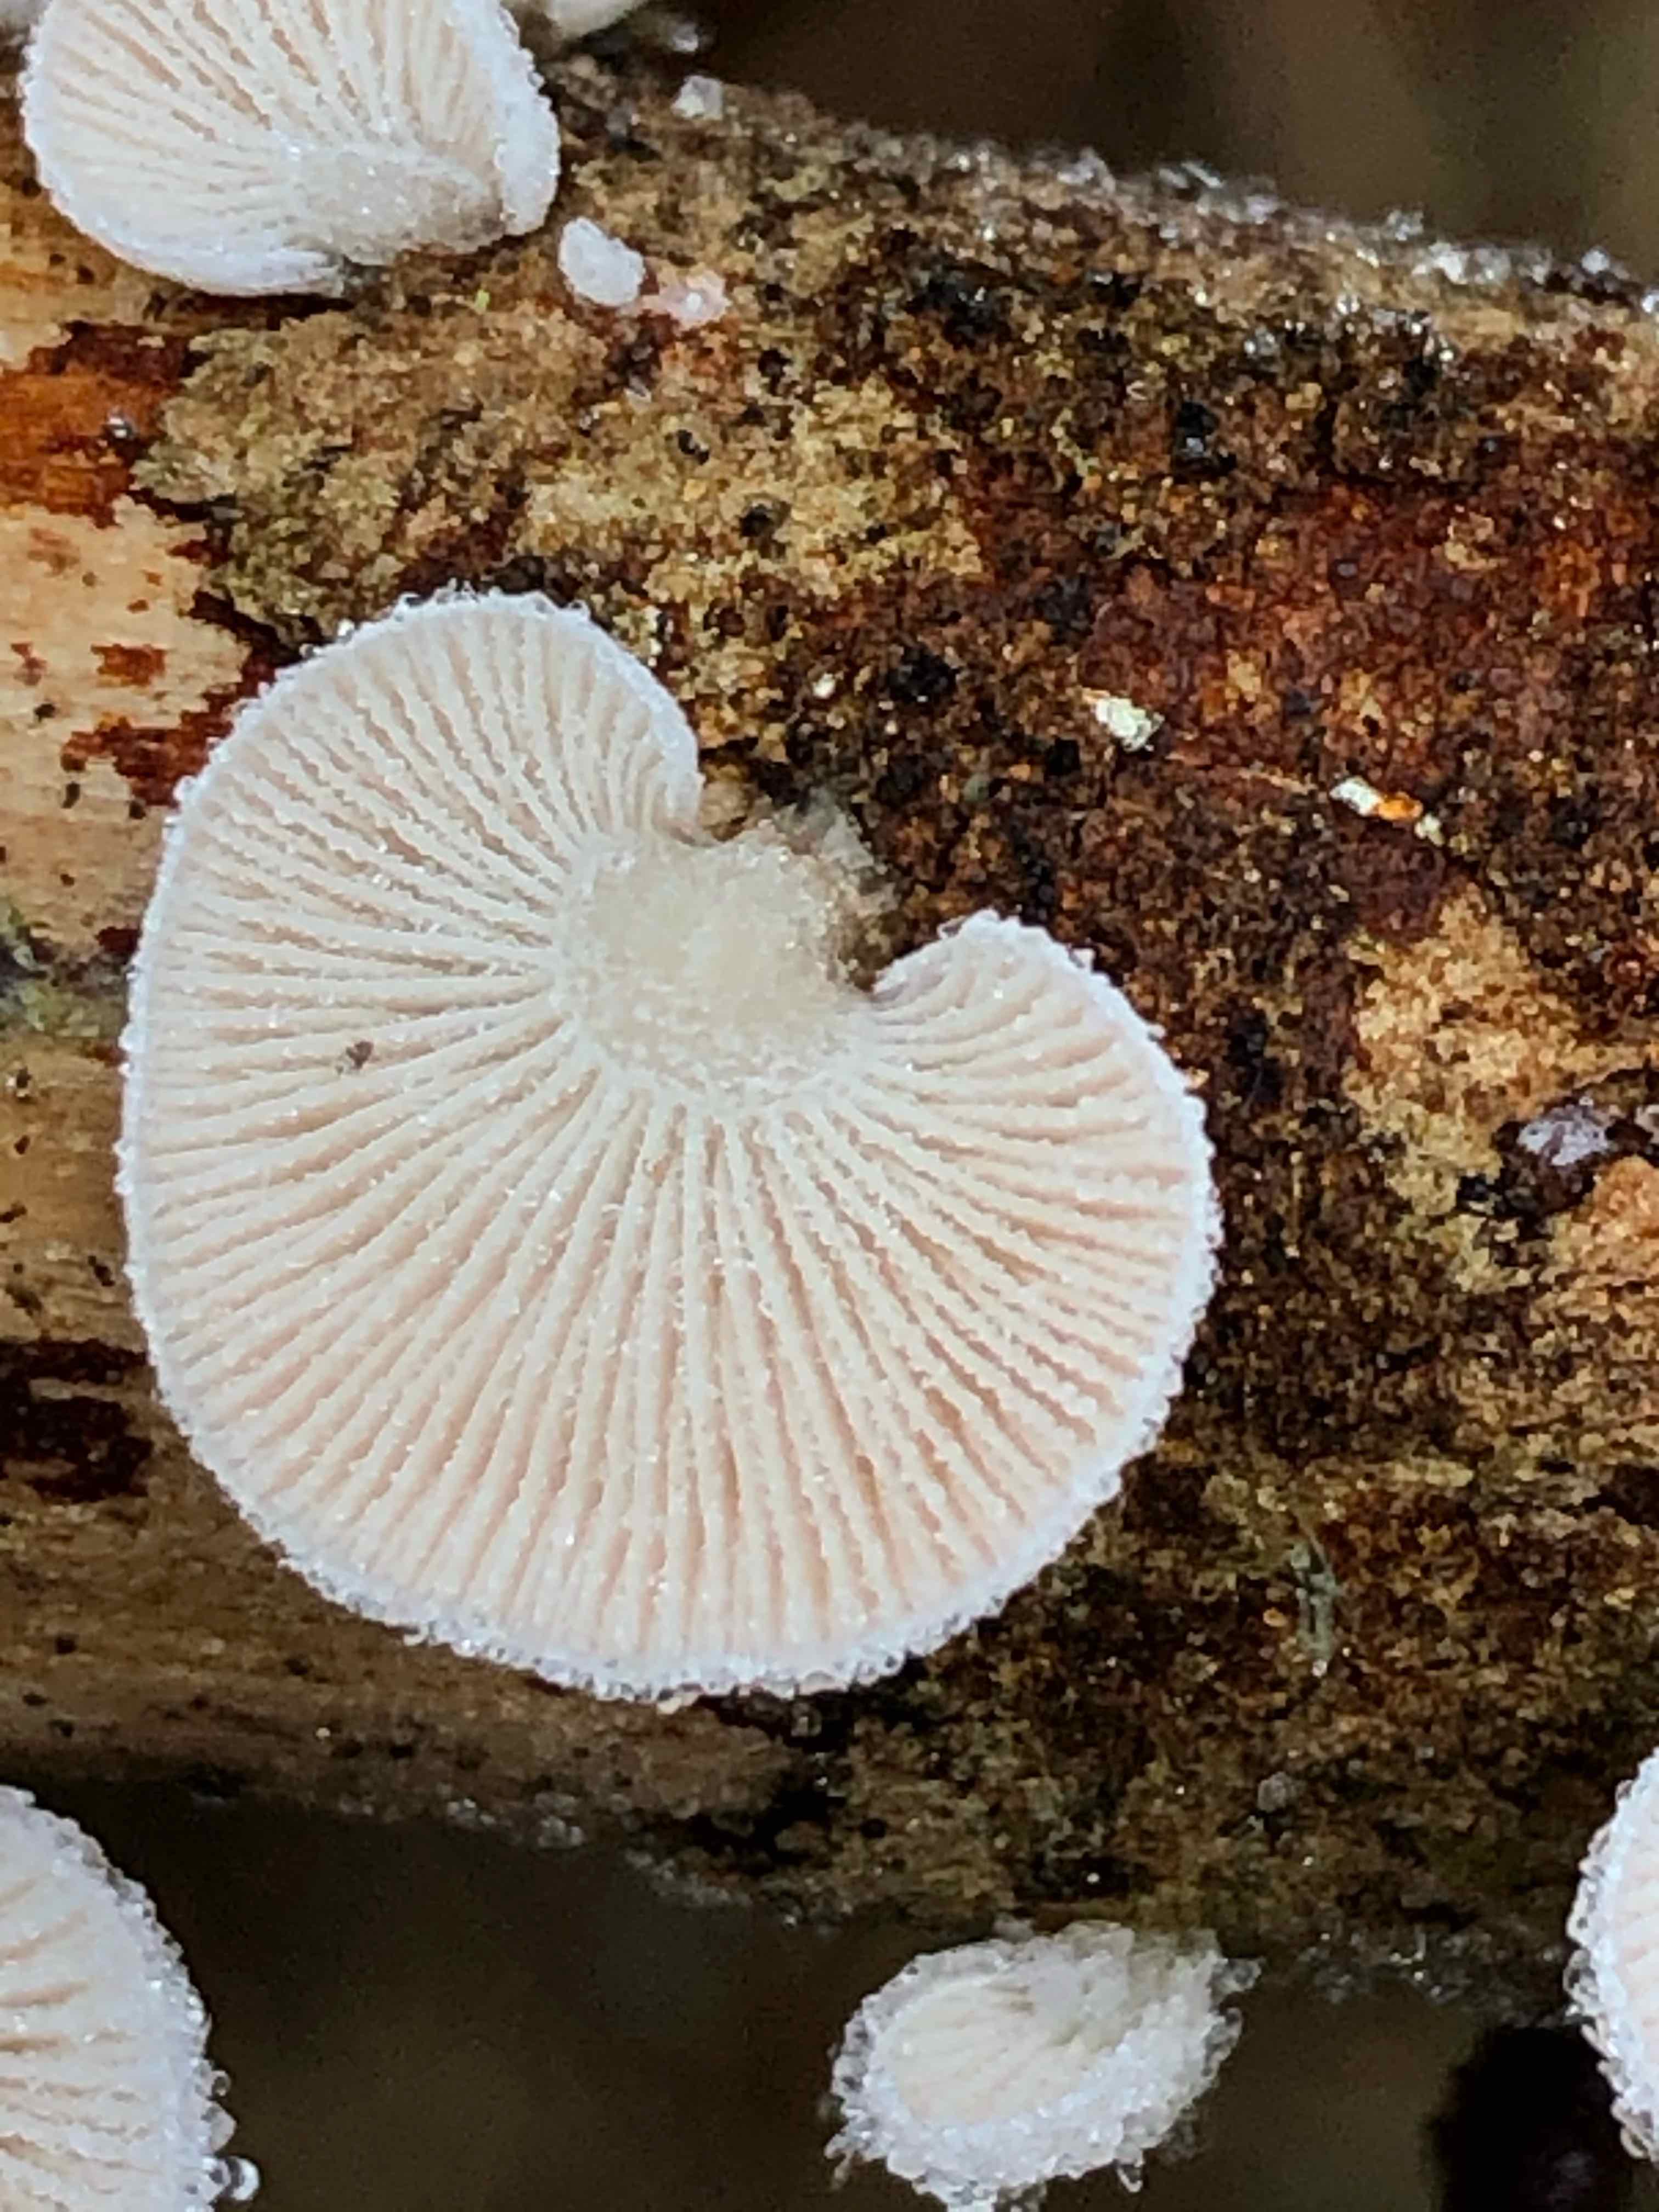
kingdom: Fungi
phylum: Basidiomycota
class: Agaricomycetes
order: Agaricales
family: Mycenaceae
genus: Panellus
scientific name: Panellus mitis
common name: mild epaulethat
